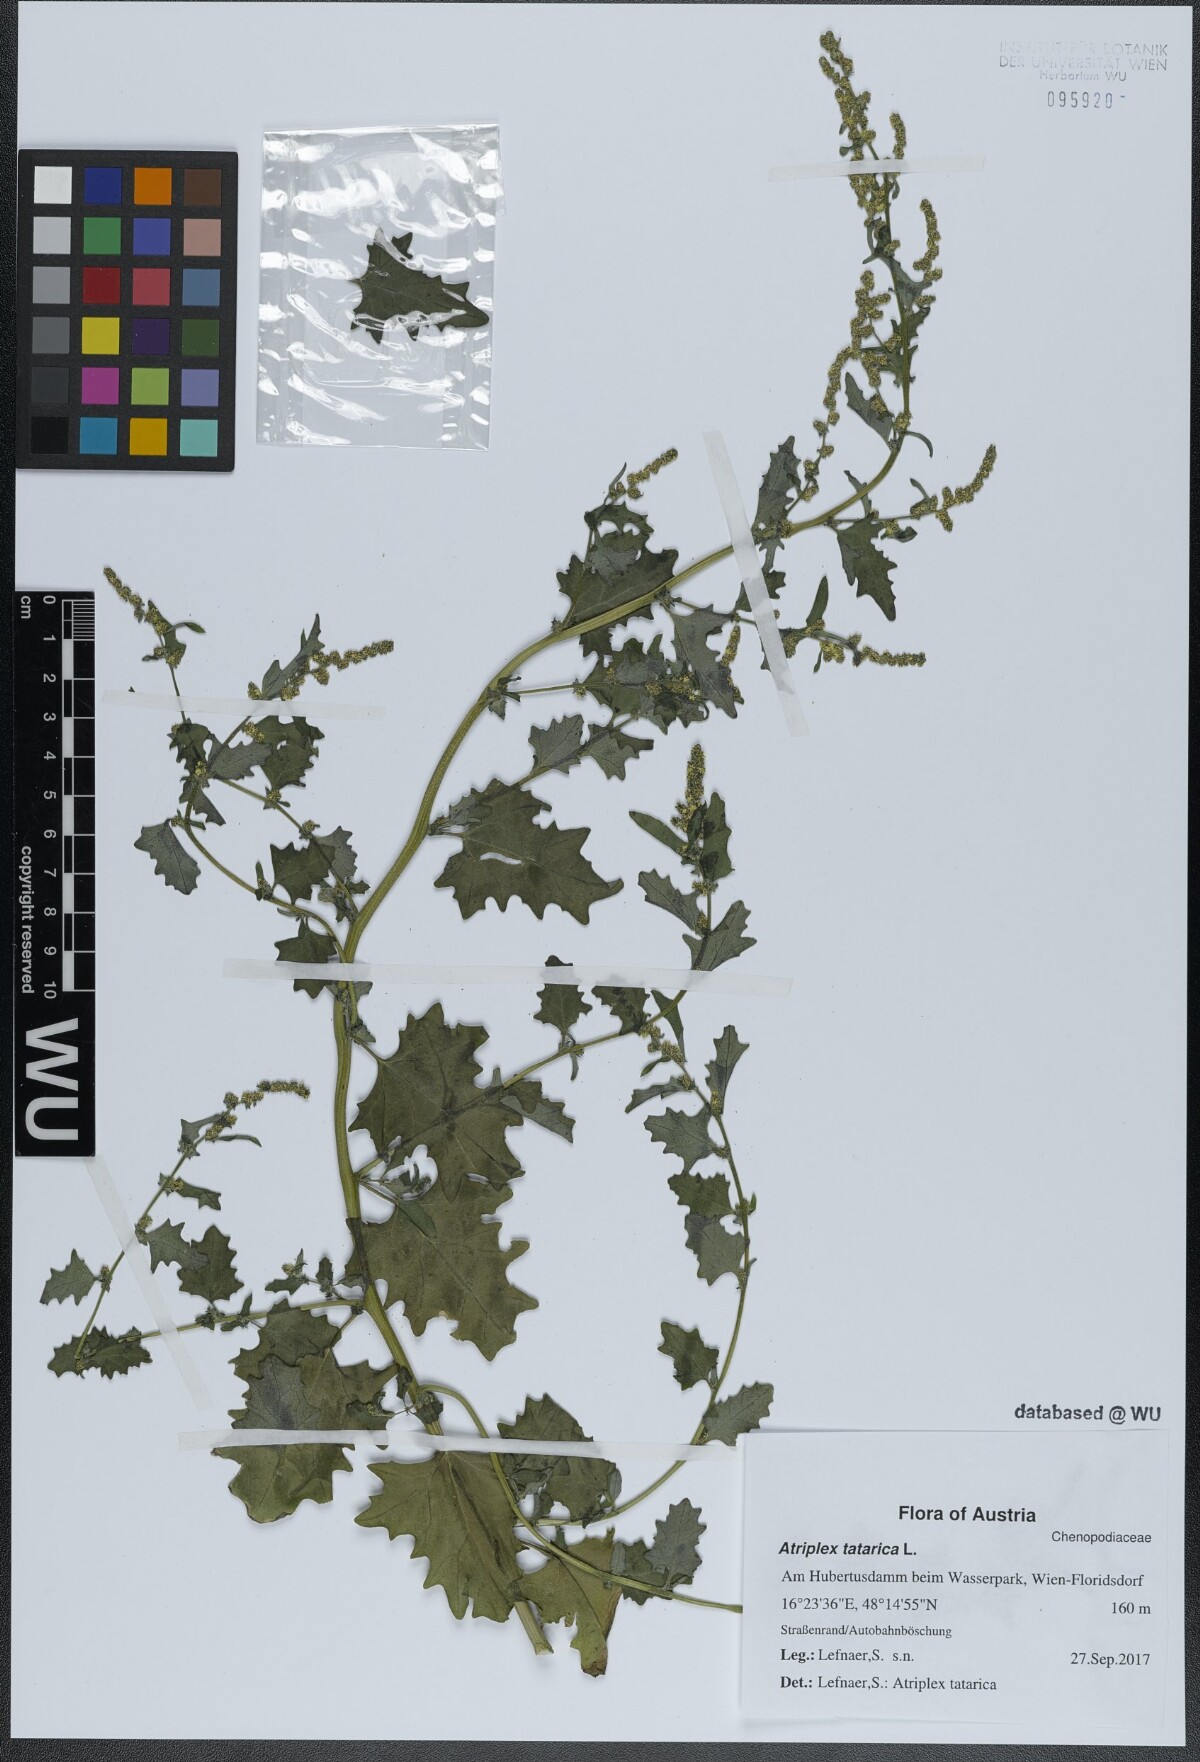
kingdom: Plantae
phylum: Tracheophyta
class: Magnoliopsida
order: Caryophyllales
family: Amaranthaceae
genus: Atriplex
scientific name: Atriplex tatarica
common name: Tatarian orache
